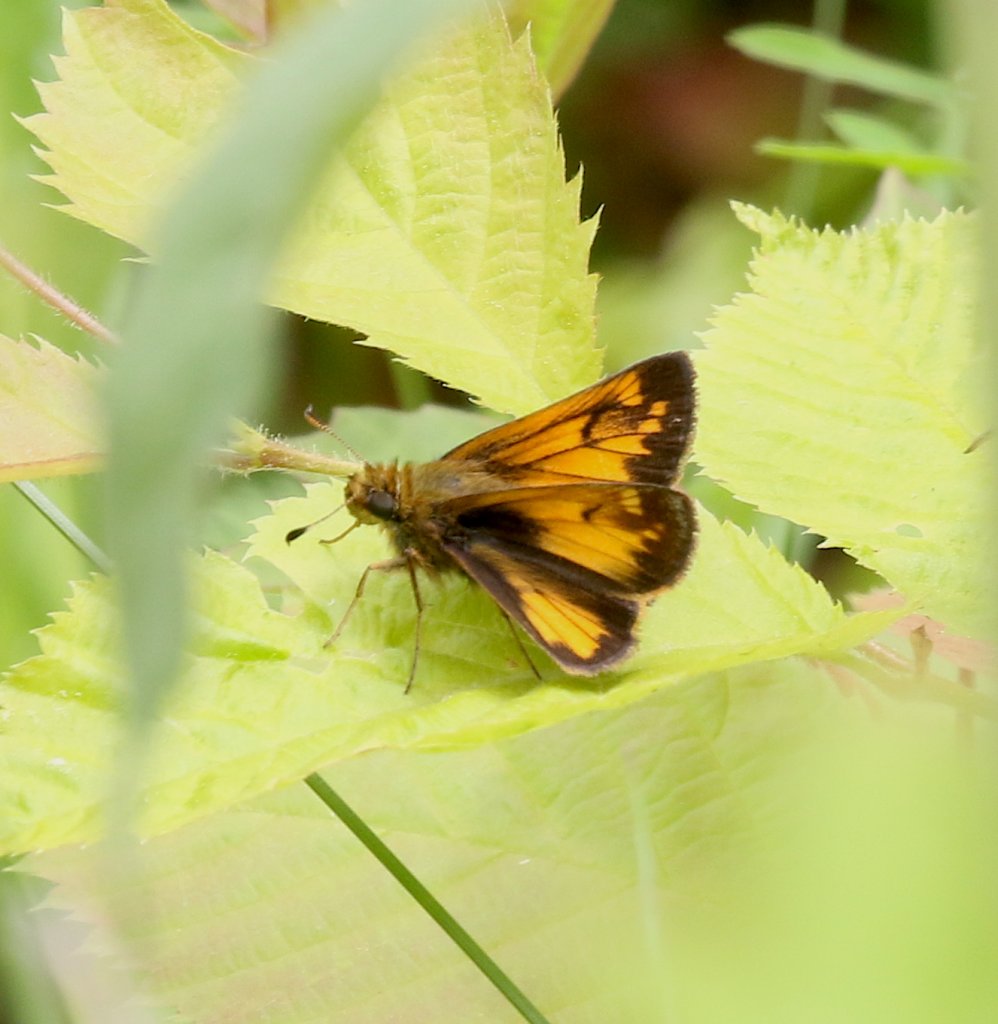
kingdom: Animalia
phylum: Arthropoda
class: Insecta
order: Lepidoptera
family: Hesperiidae
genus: Lon
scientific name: Lon hobomok
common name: Hobomok Skipper
